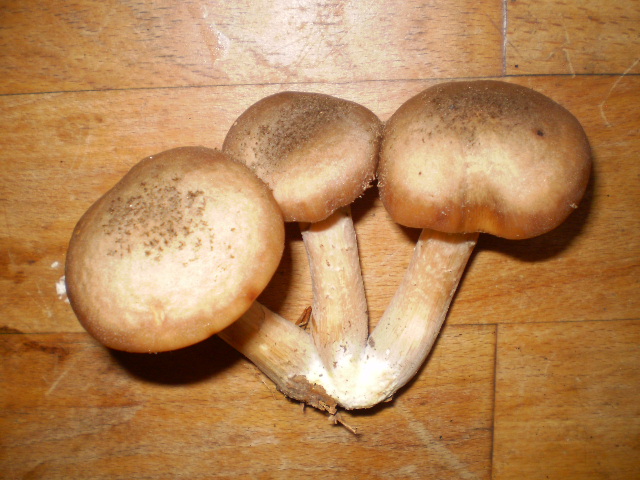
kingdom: Fungi
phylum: Basidiomycota
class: Agaricomycetes
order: Agaricales
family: Physalacriaceae
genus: Armillaria
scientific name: Armillaria cepistipes
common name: knoldfodet honningsvamp
